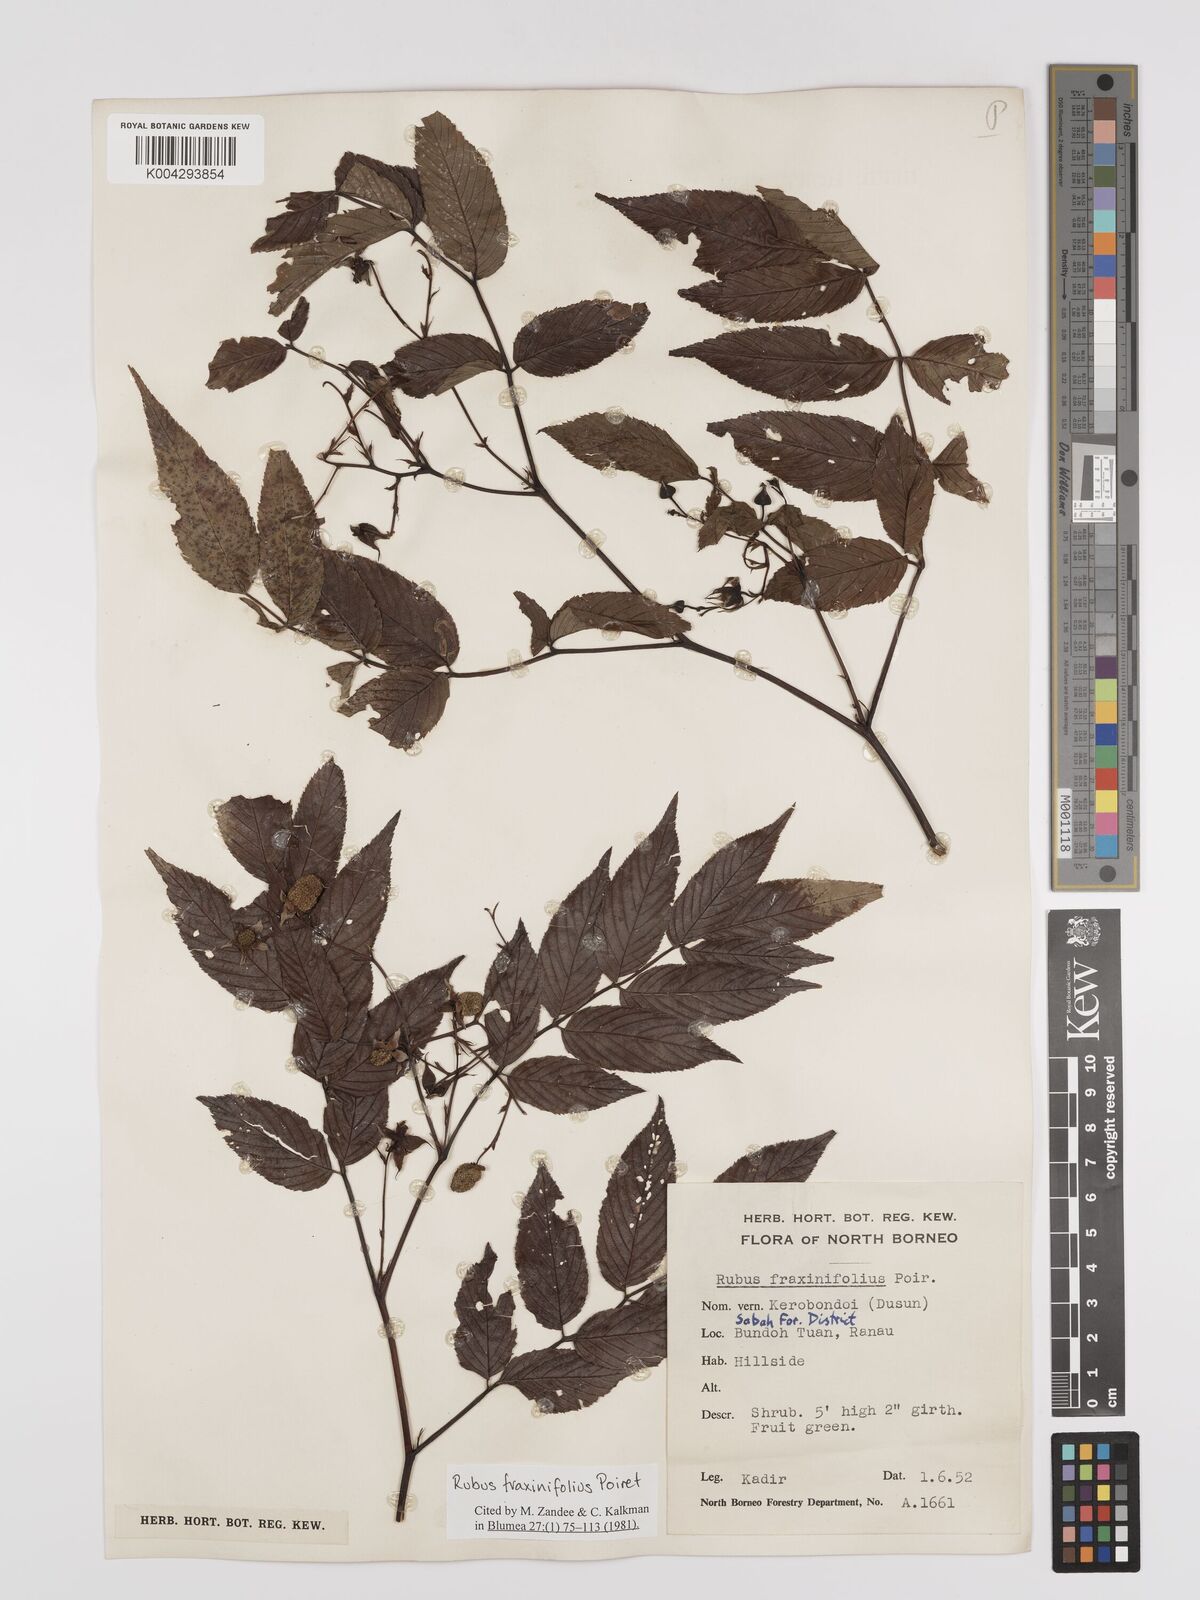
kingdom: Plantae
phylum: Tracheophyta
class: Magnoliopsida
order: Rosales
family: Rosaceae
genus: Rubus
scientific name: Rubus fraxinifolius
